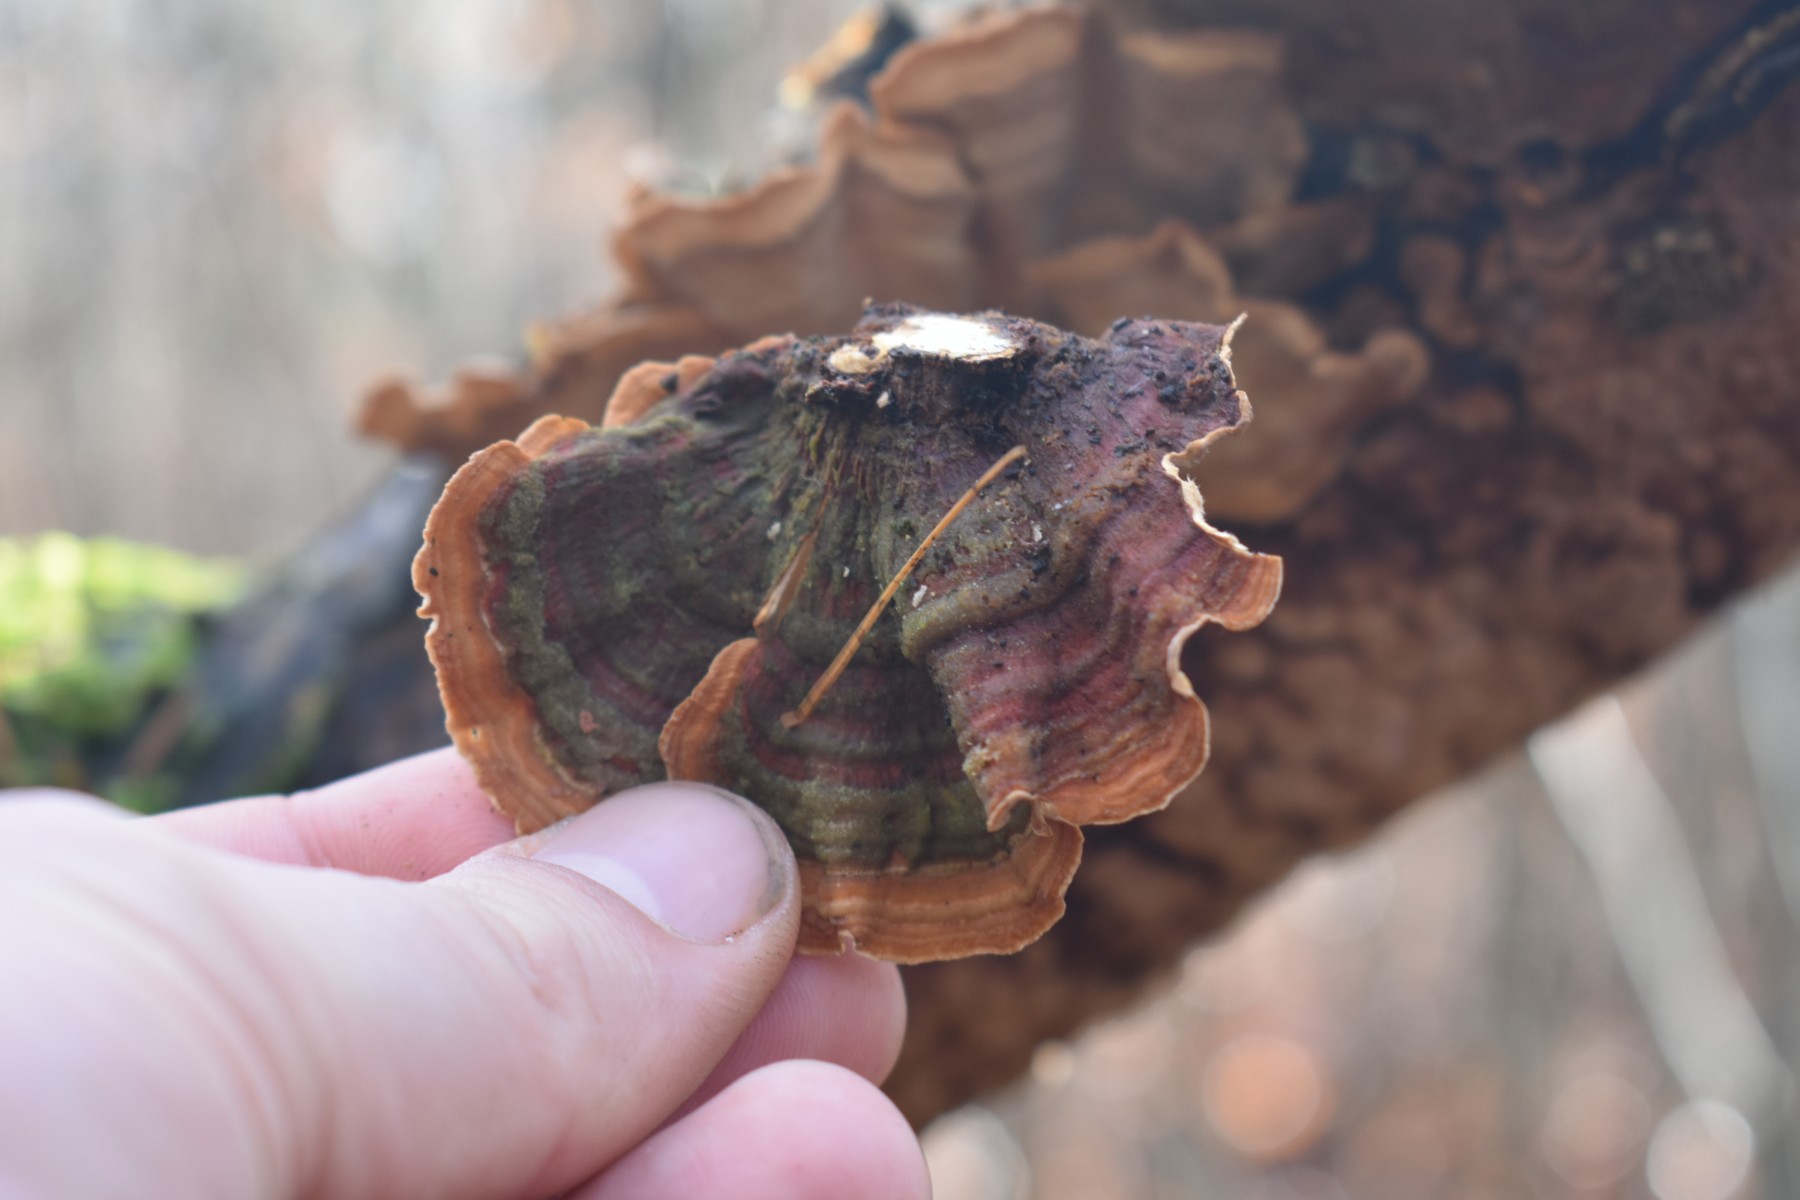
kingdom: Fungi
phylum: Basidiomycota
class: Agaricomycetes
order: Russulales
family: Stereaceae
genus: Stereum
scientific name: Stereum subtomentosum
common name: smuk lædersvamp
